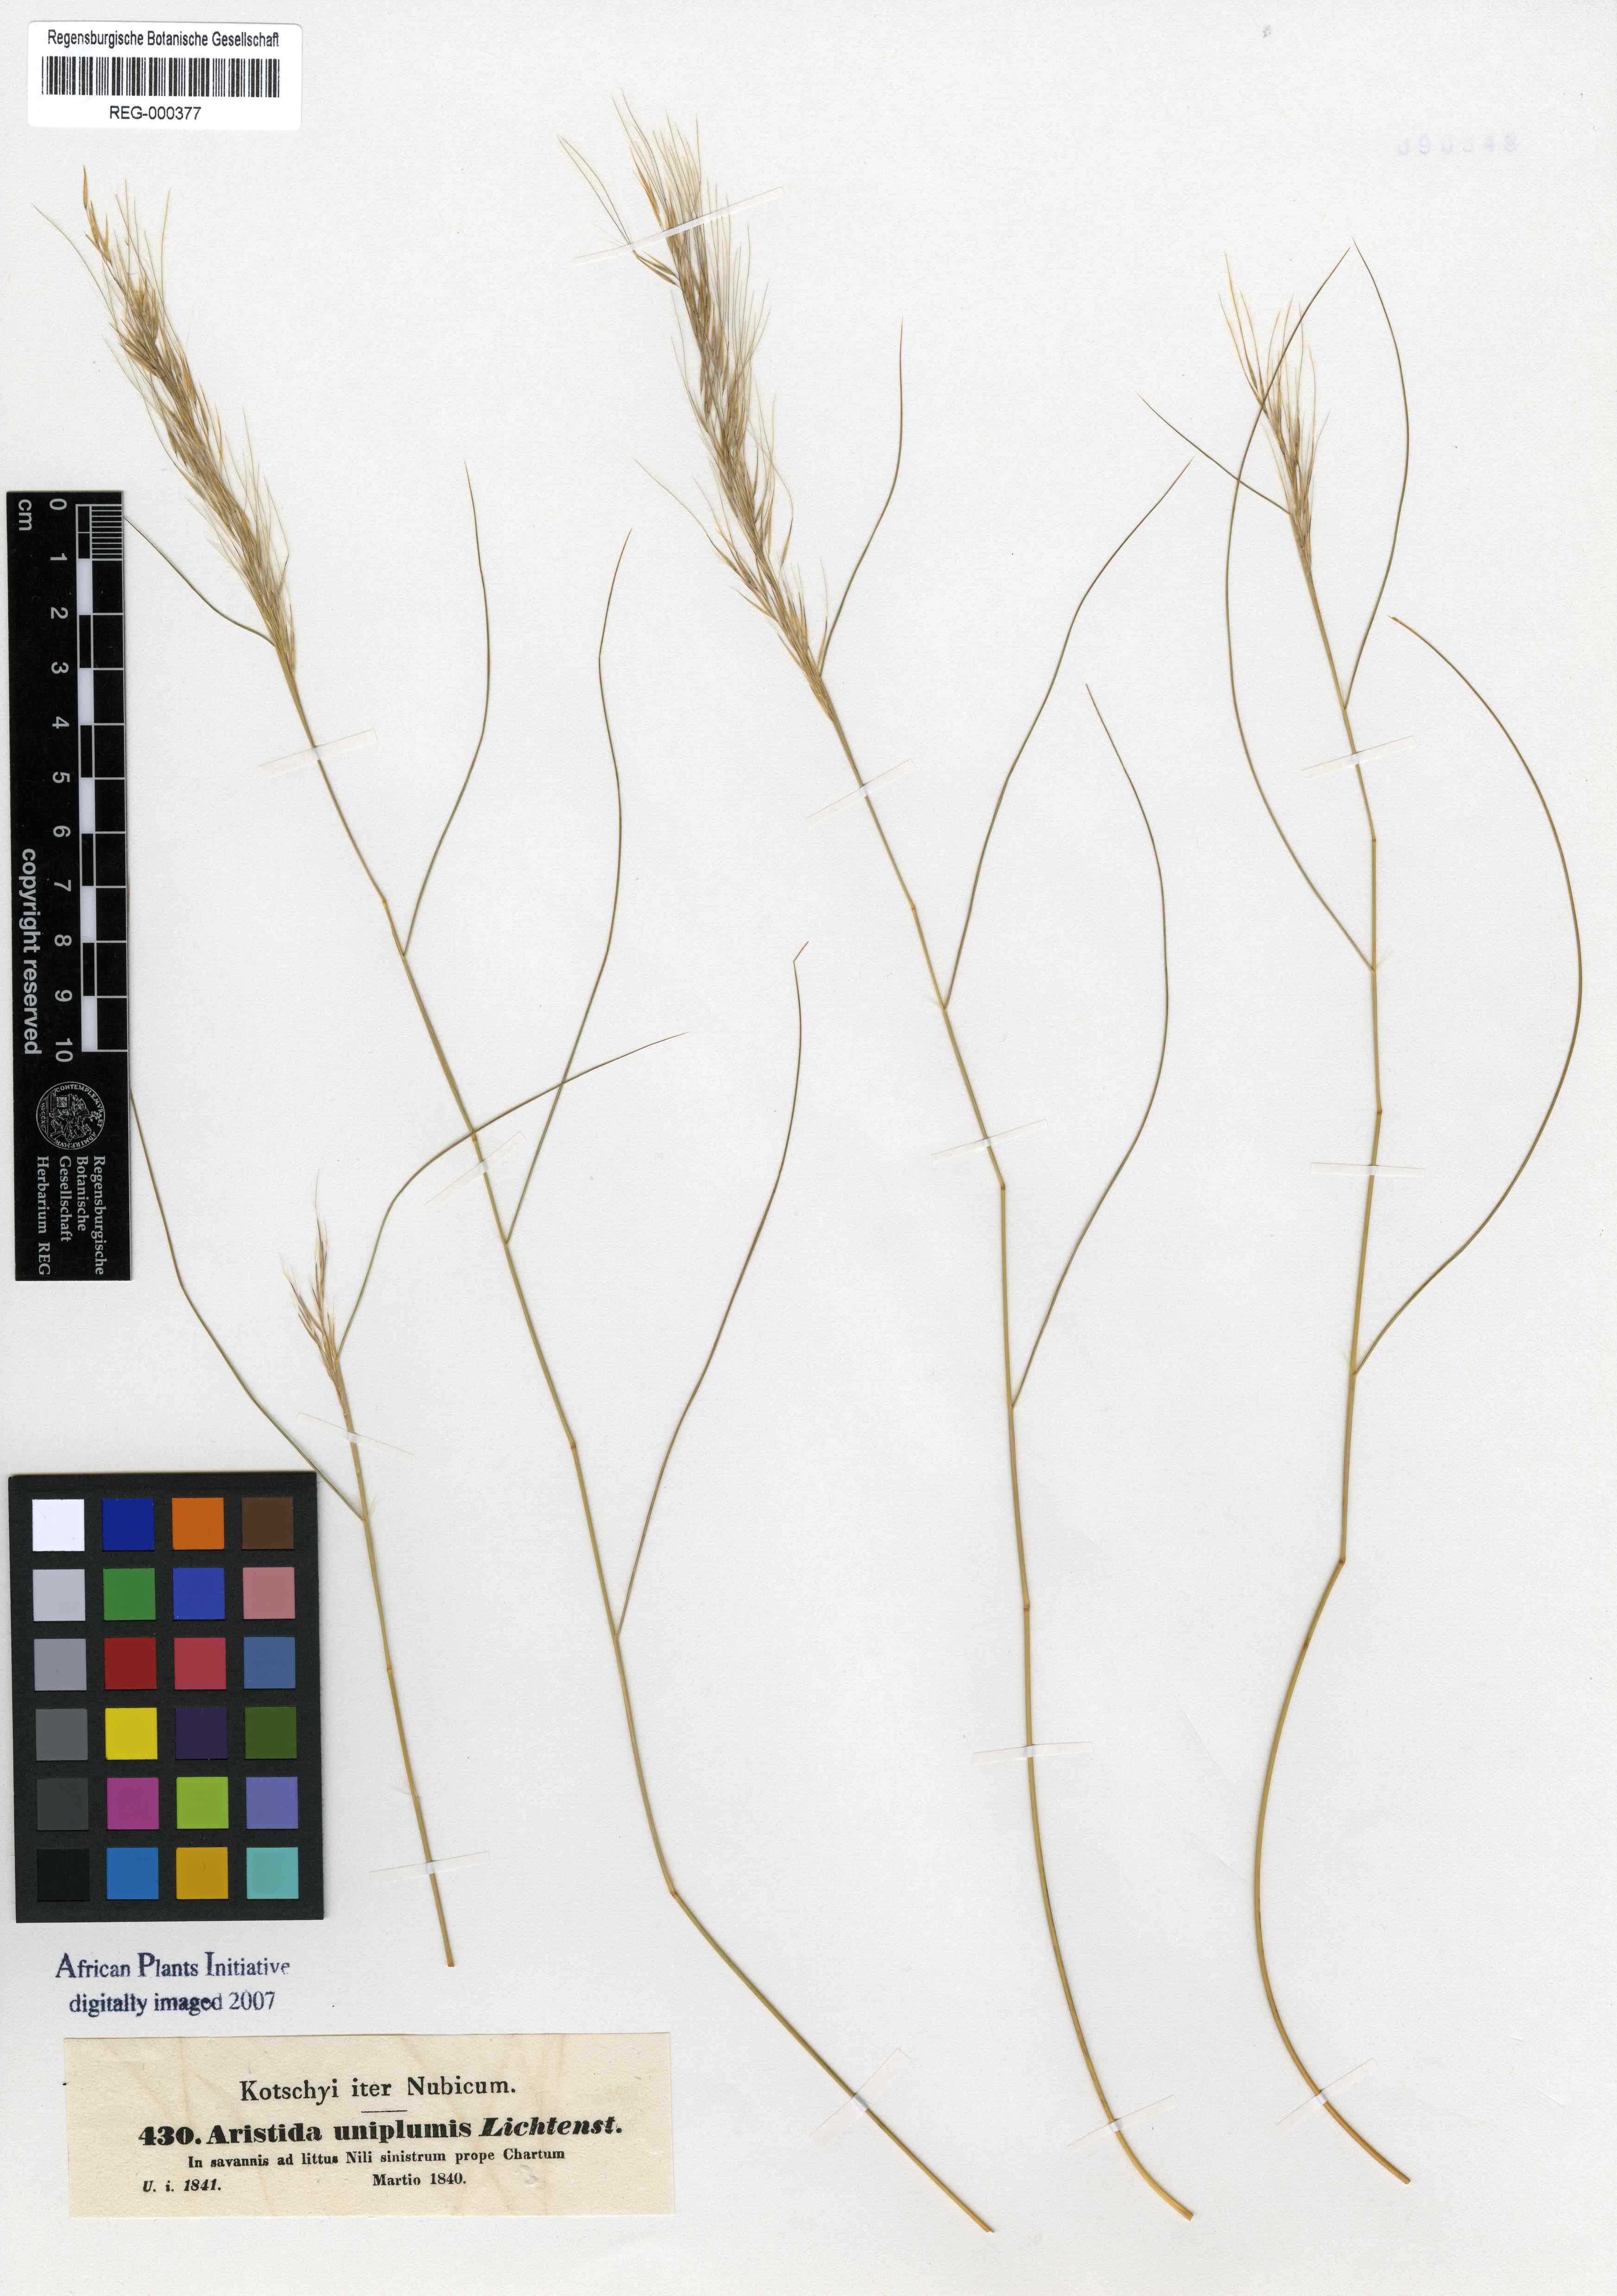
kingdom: Plantae
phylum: Tracheophyta
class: Liliopsida
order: Poales
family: Poaceae
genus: Stipagrostis
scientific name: Stipagrostis uniplumis
